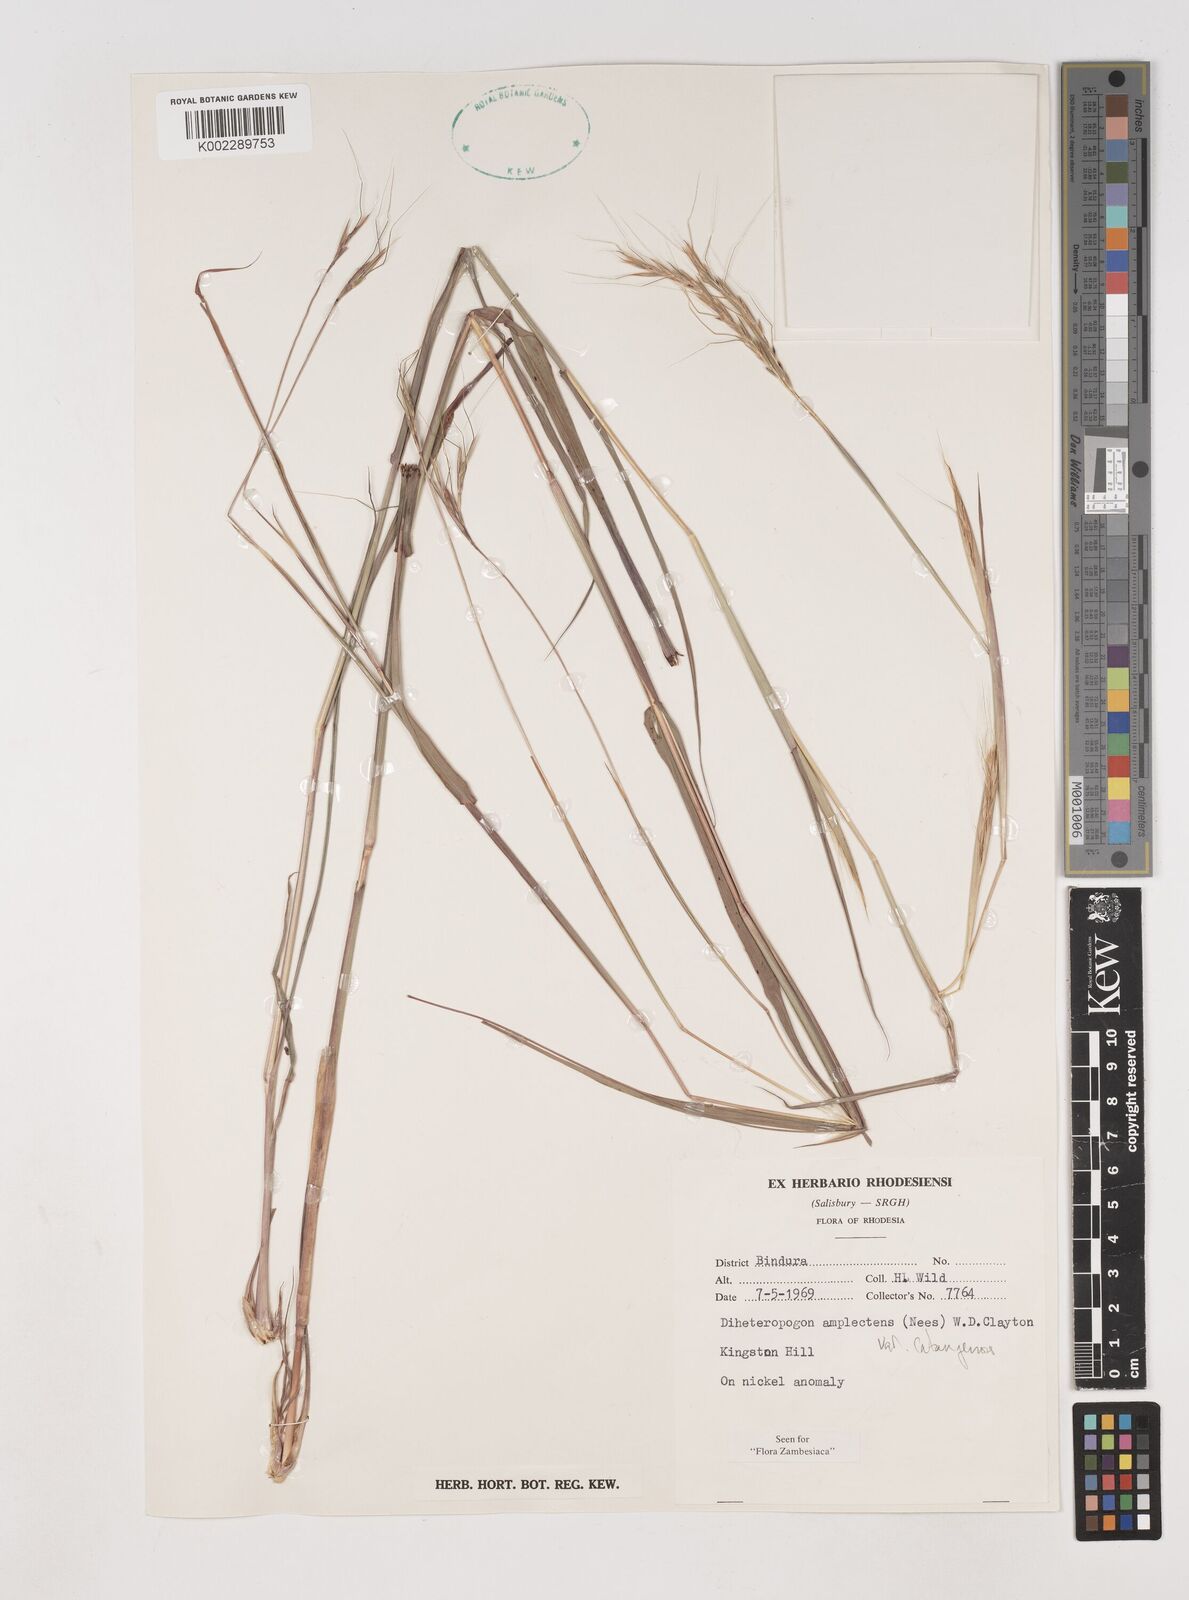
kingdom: Plantae
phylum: Tracheophyta
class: Liliopsida
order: Poales
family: Poaceae
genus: Diheteropogon
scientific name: Diheteropogon amplectens
